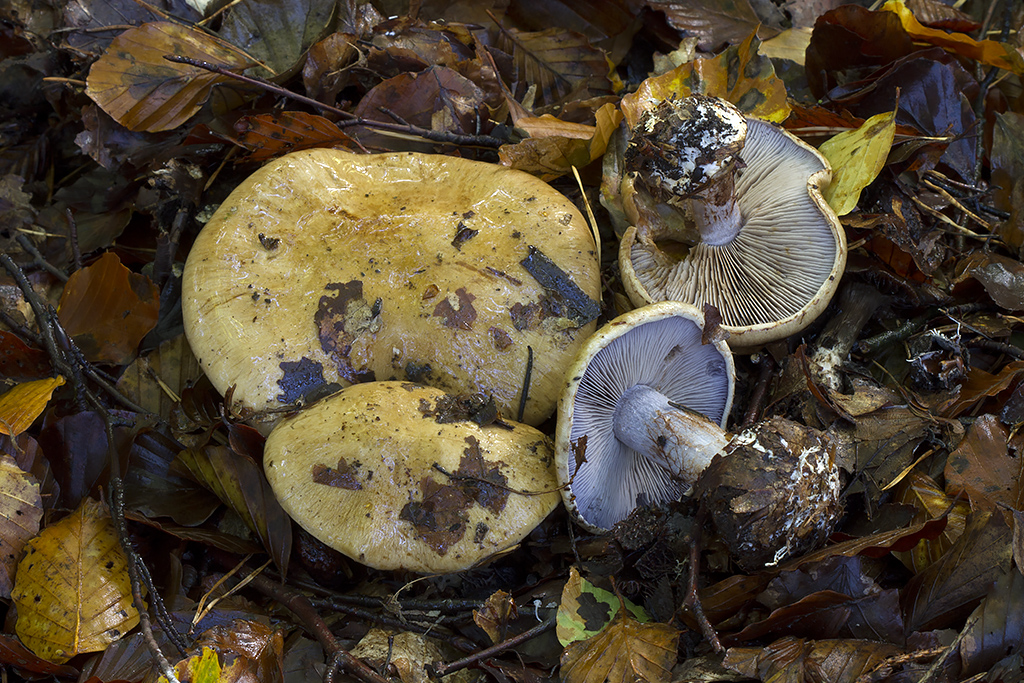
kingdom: Fungi
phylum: Basidiomycota
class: Agaricomycetes
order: Agaricales
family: Cortinariaceae
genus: Cortinarius
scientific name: Cortinarius anserinus
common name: bøge-slørhat
